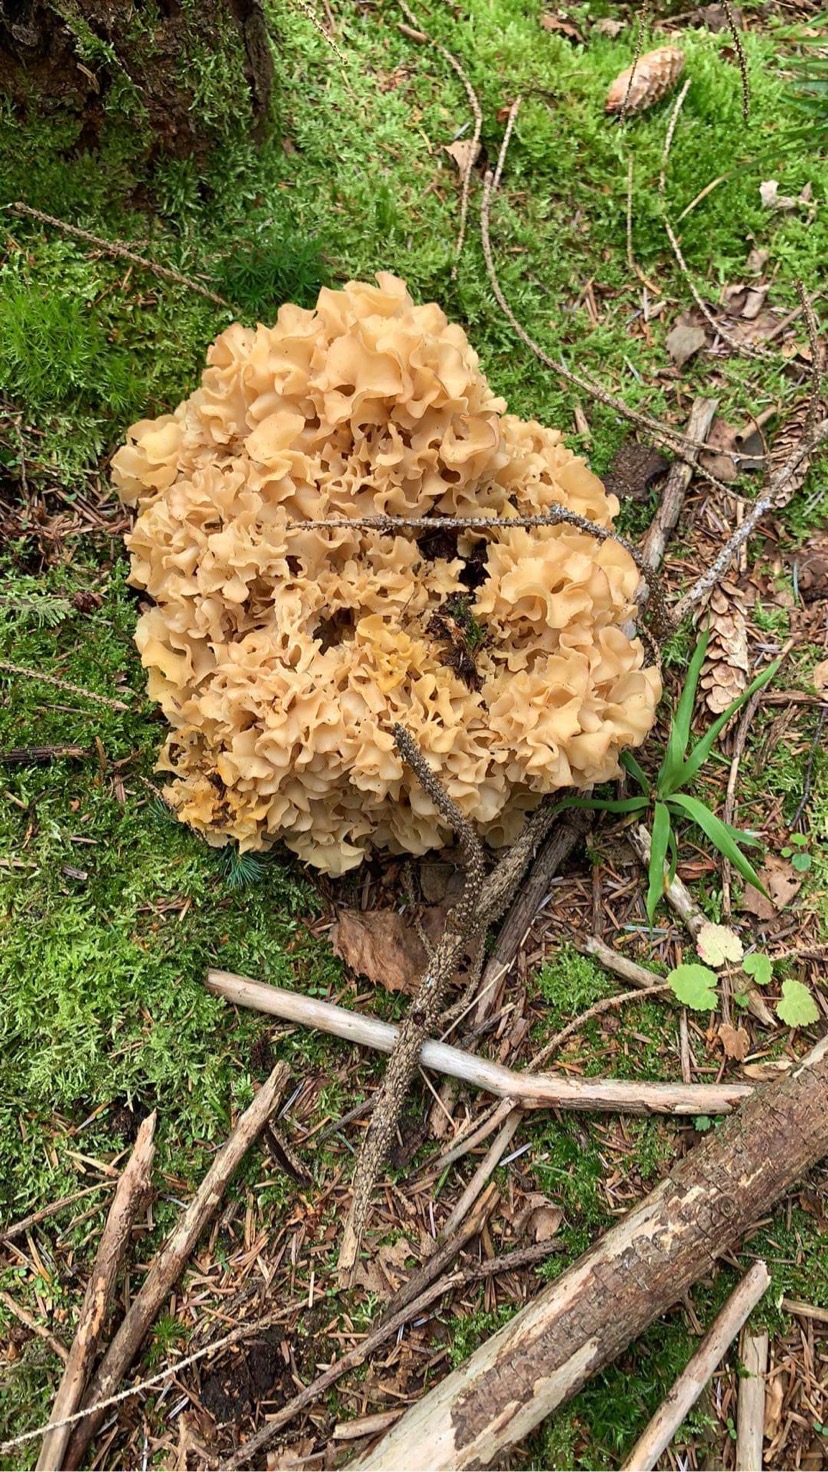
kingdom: Fungi
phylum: Basidiomycota
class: Agaricomycetes
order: Polyporales
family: Sparassidaceae
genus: Sparassis
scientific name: Sparassis crispa
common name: kruset blomkålssvamp
